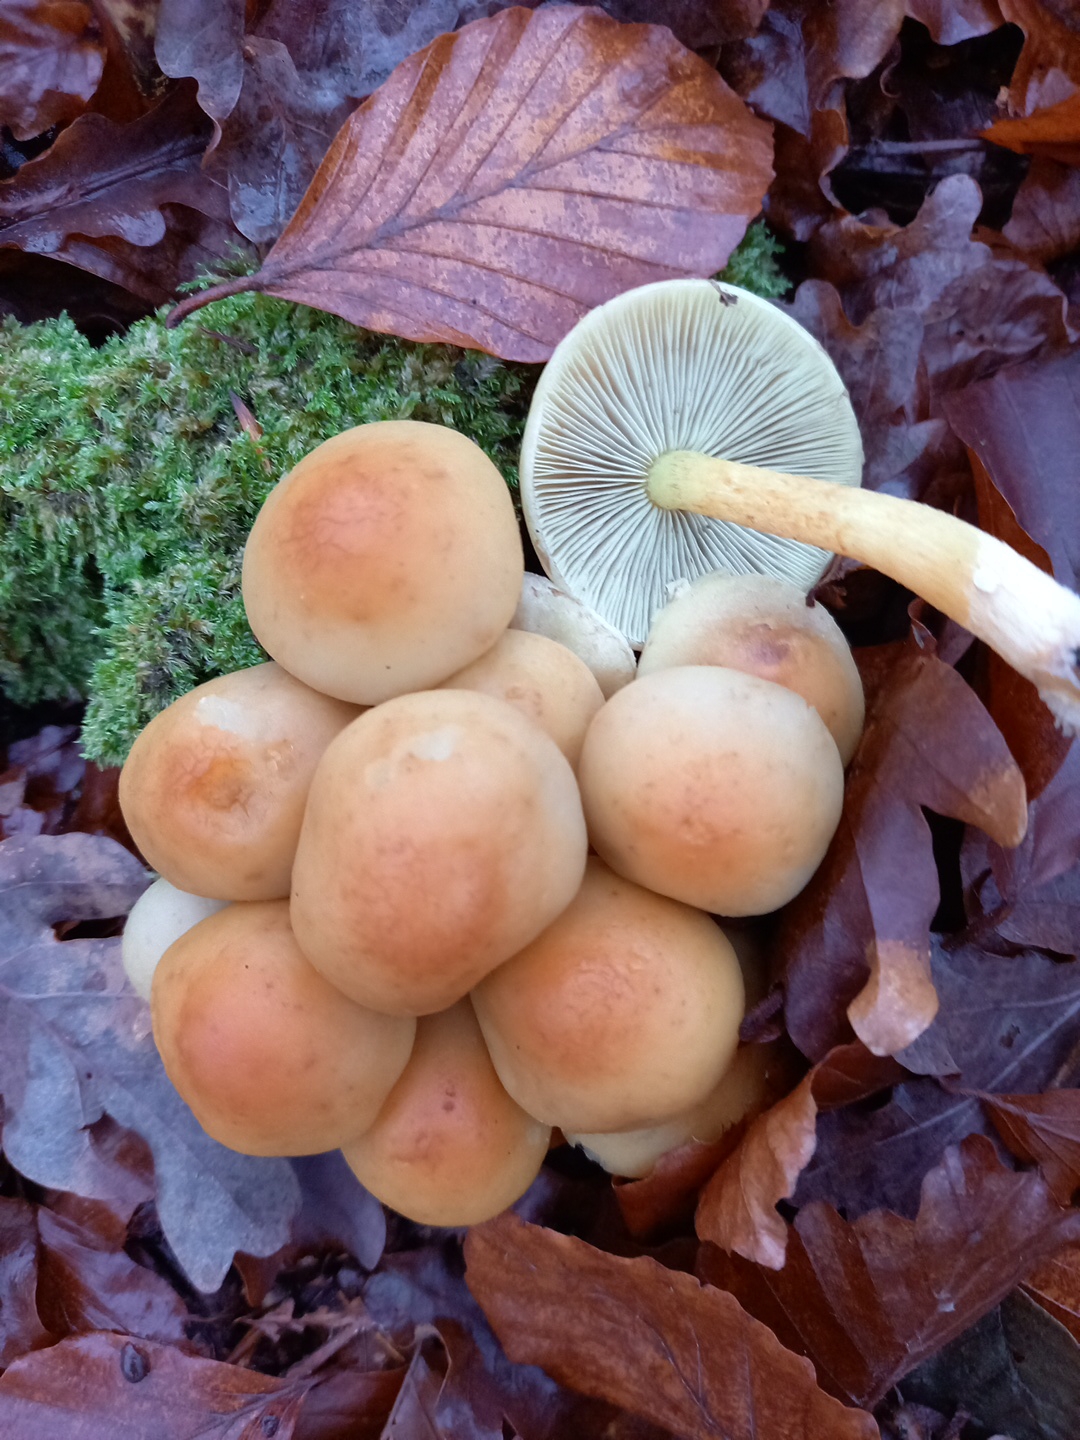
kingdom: Fungi
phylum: Basidiomycota
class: Agaricomycetes
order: Agaricales
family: Strophariaceae
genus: Hypholoma
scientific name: Hypholoma lateritium
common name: teglrød svovlhat
